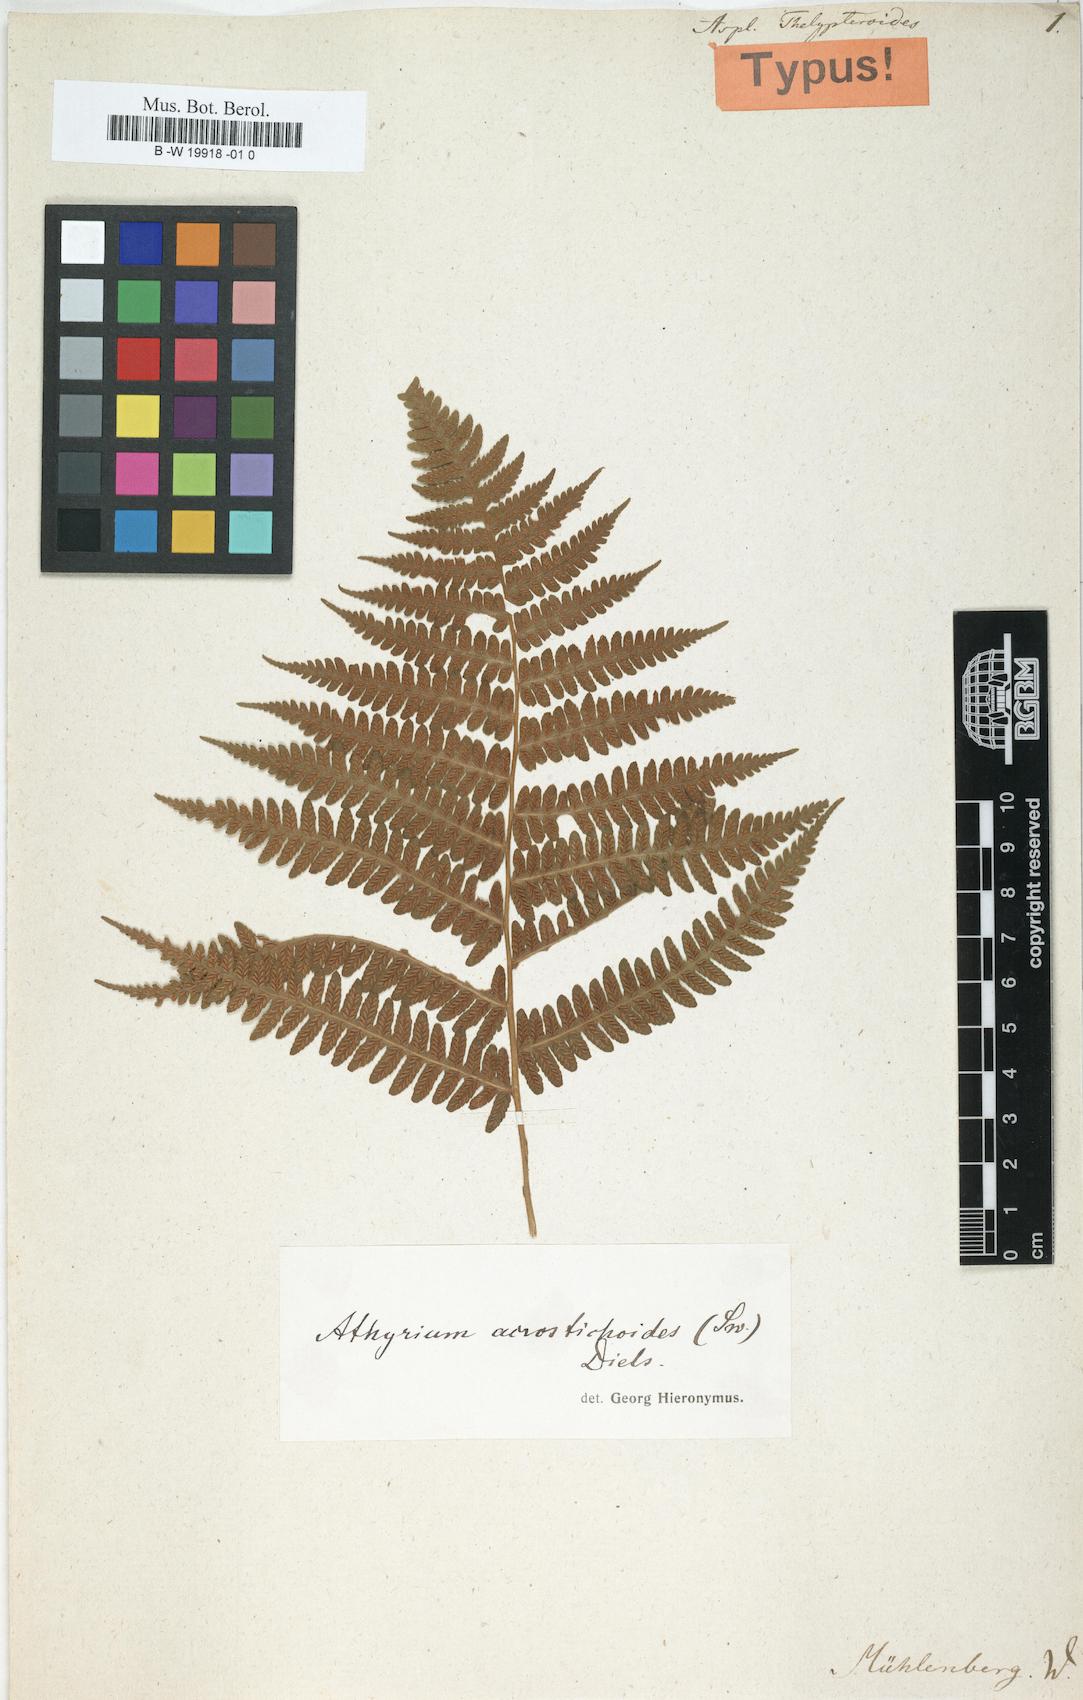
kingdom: Plantae
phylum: Tracheophyta
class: Polypodiopsida
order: Polypodiales
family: Thelypteridaceae
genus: Amauropelta
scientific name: Amauropelta noveboracensis
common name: New york fern
